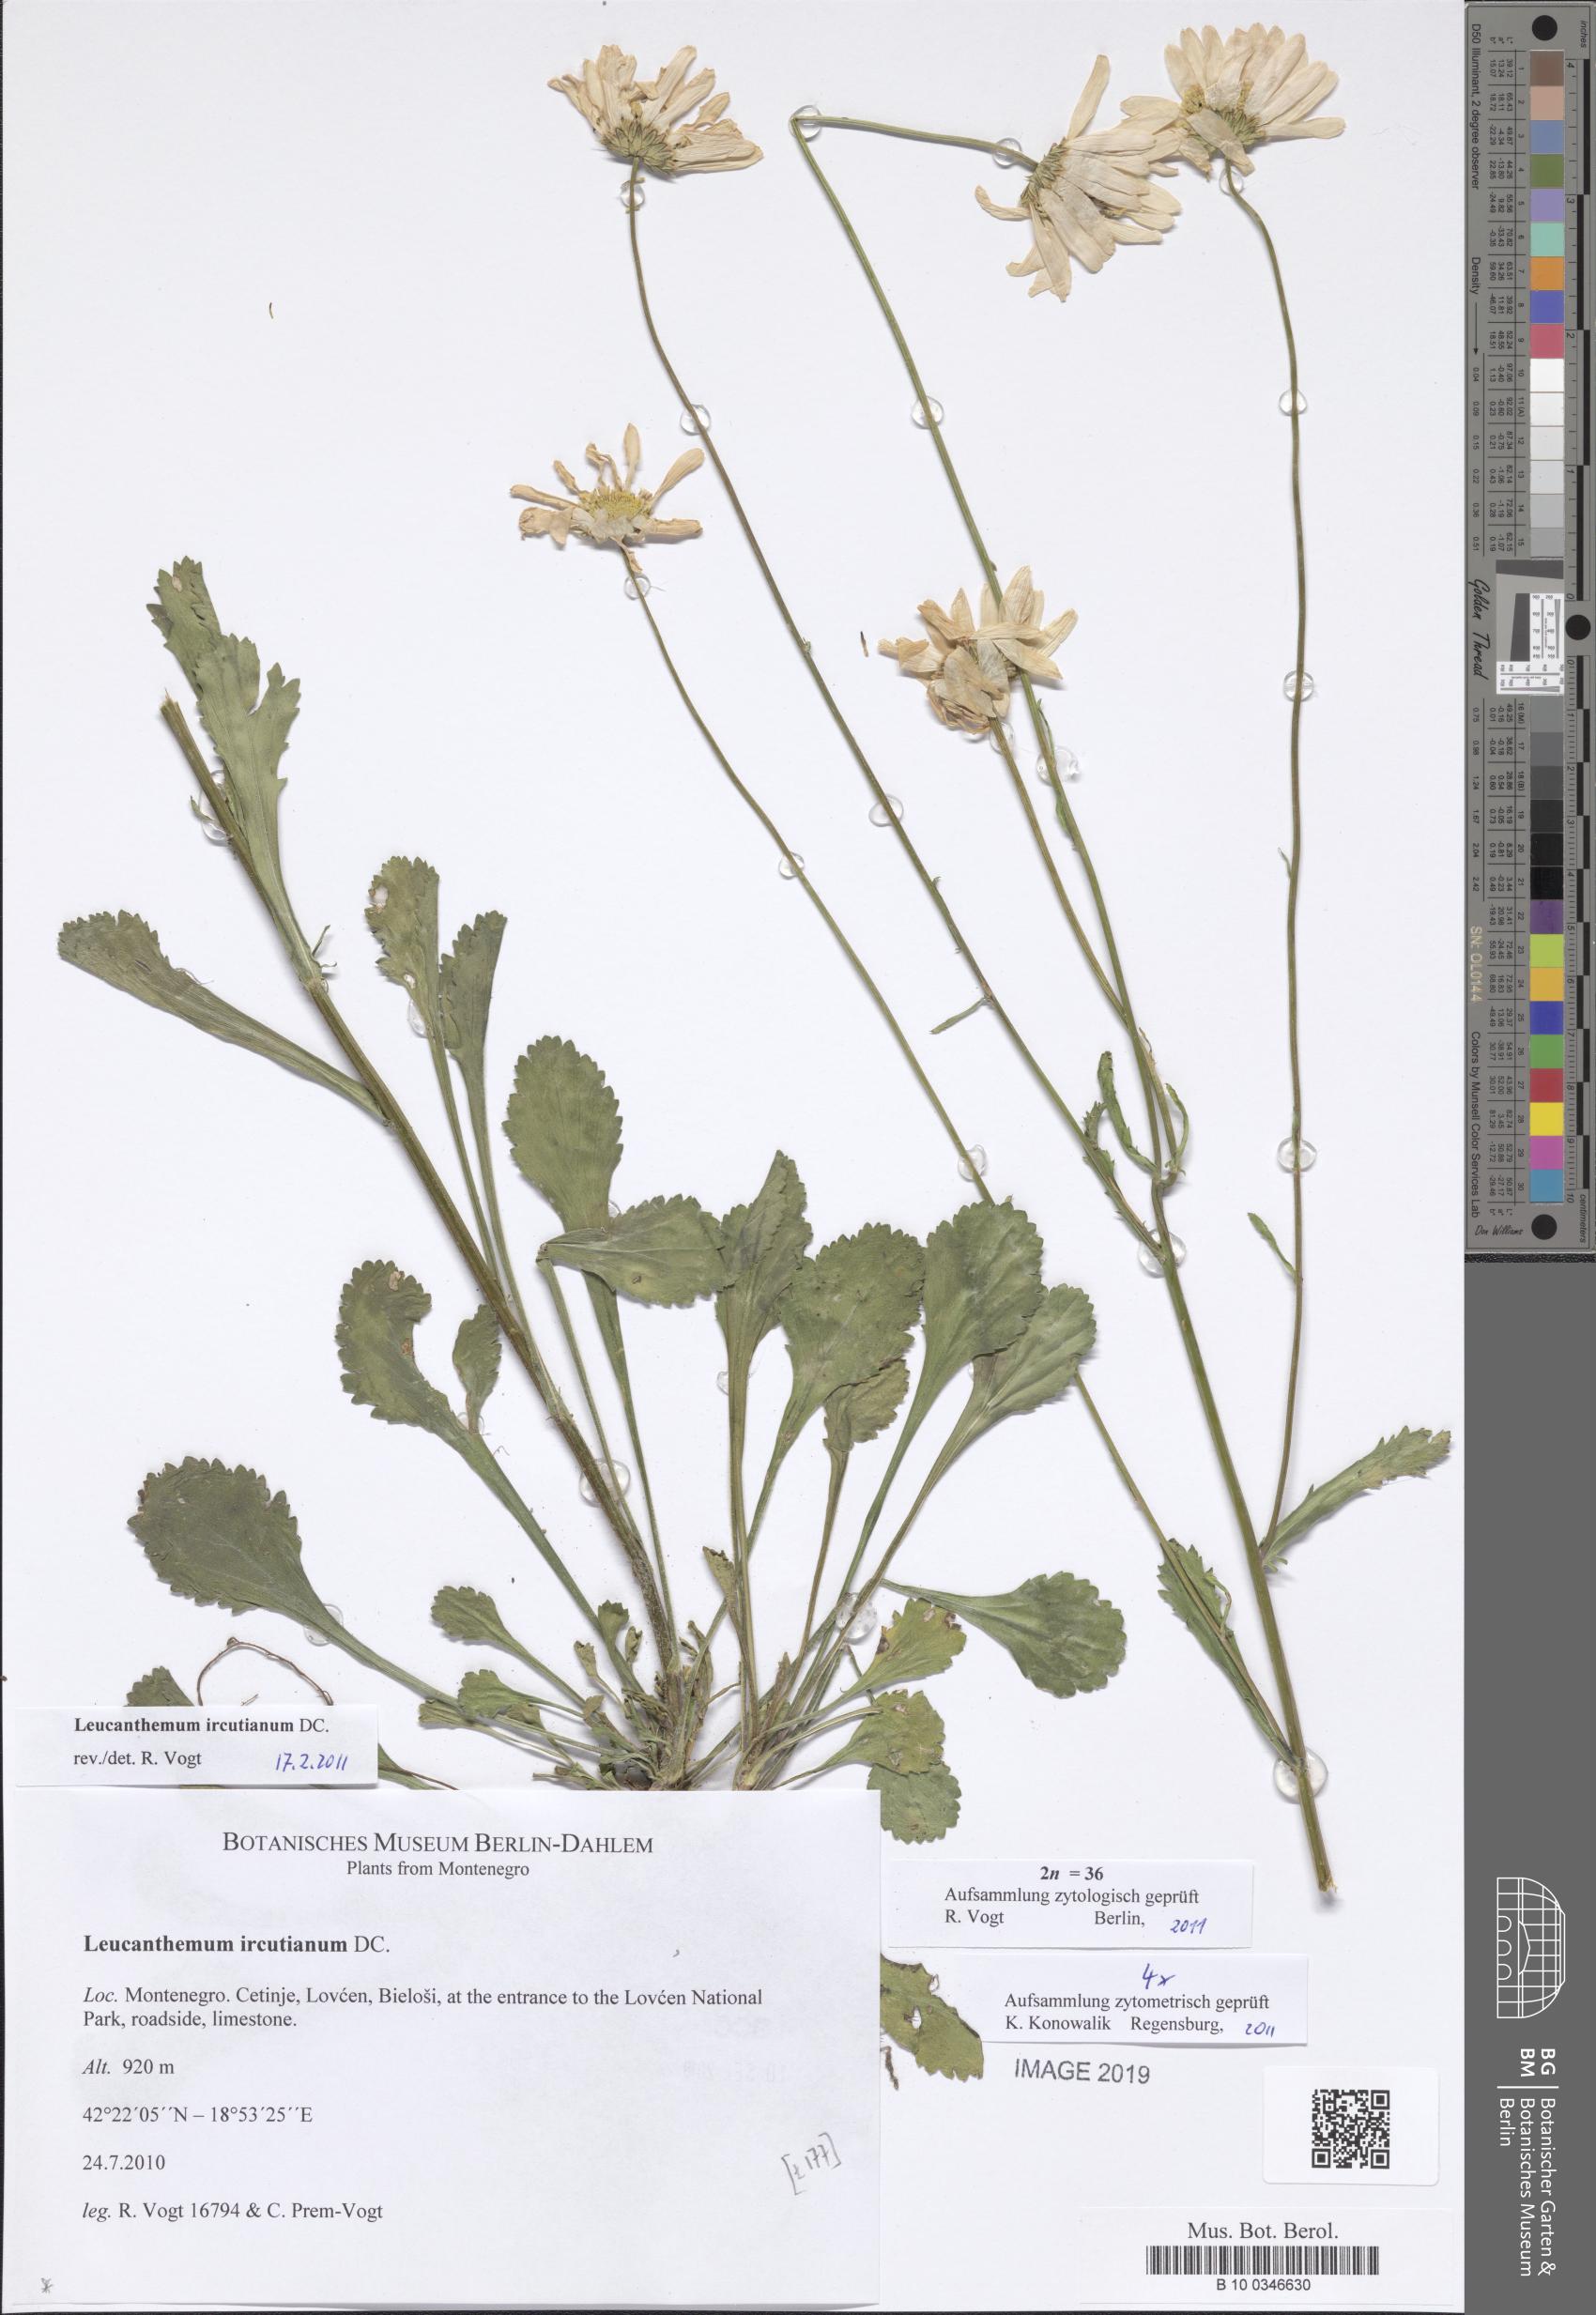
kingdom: Plantae
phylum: Tracheophyta
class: Magnoliopsida
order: Asterales
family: Asteraceae
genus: Leucanthemum
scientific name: Leucanthemum ircutianum
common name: Daisy
